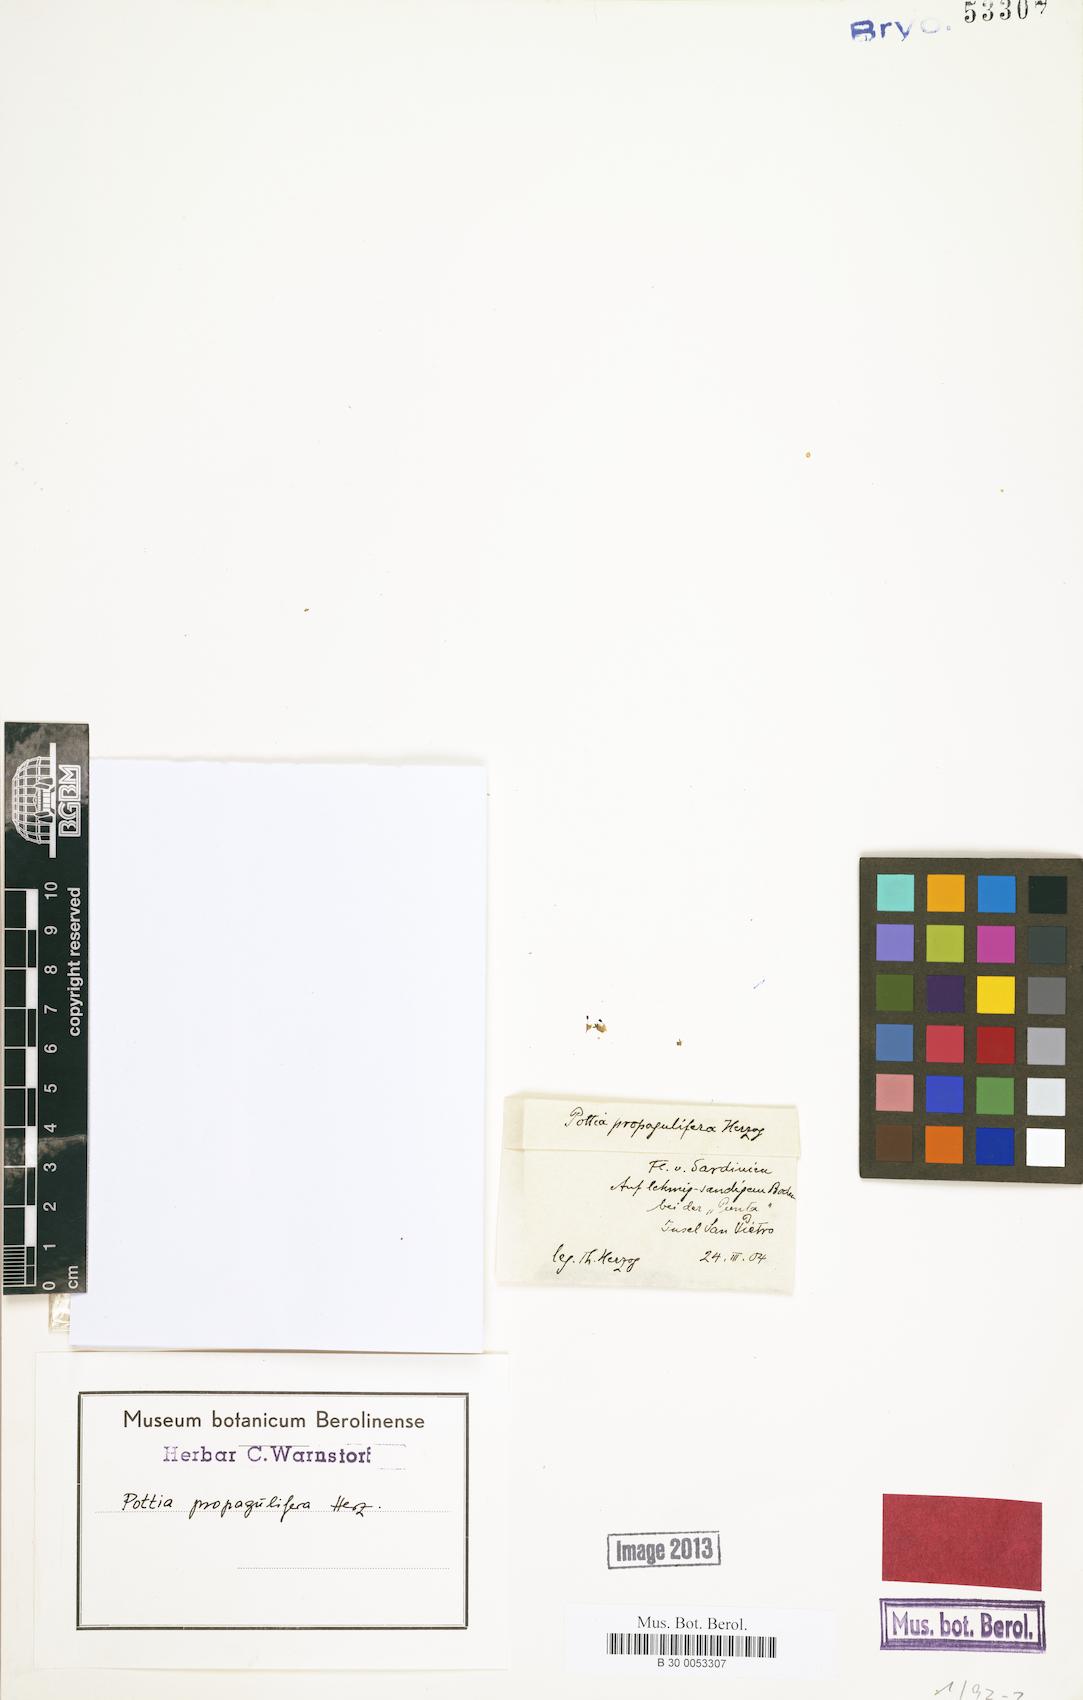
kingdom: Plantae
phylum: Bryophyta
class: Bryopsida
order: Pottiales
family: Pottiaceae
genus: Tortula
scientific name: Tortula pallida
